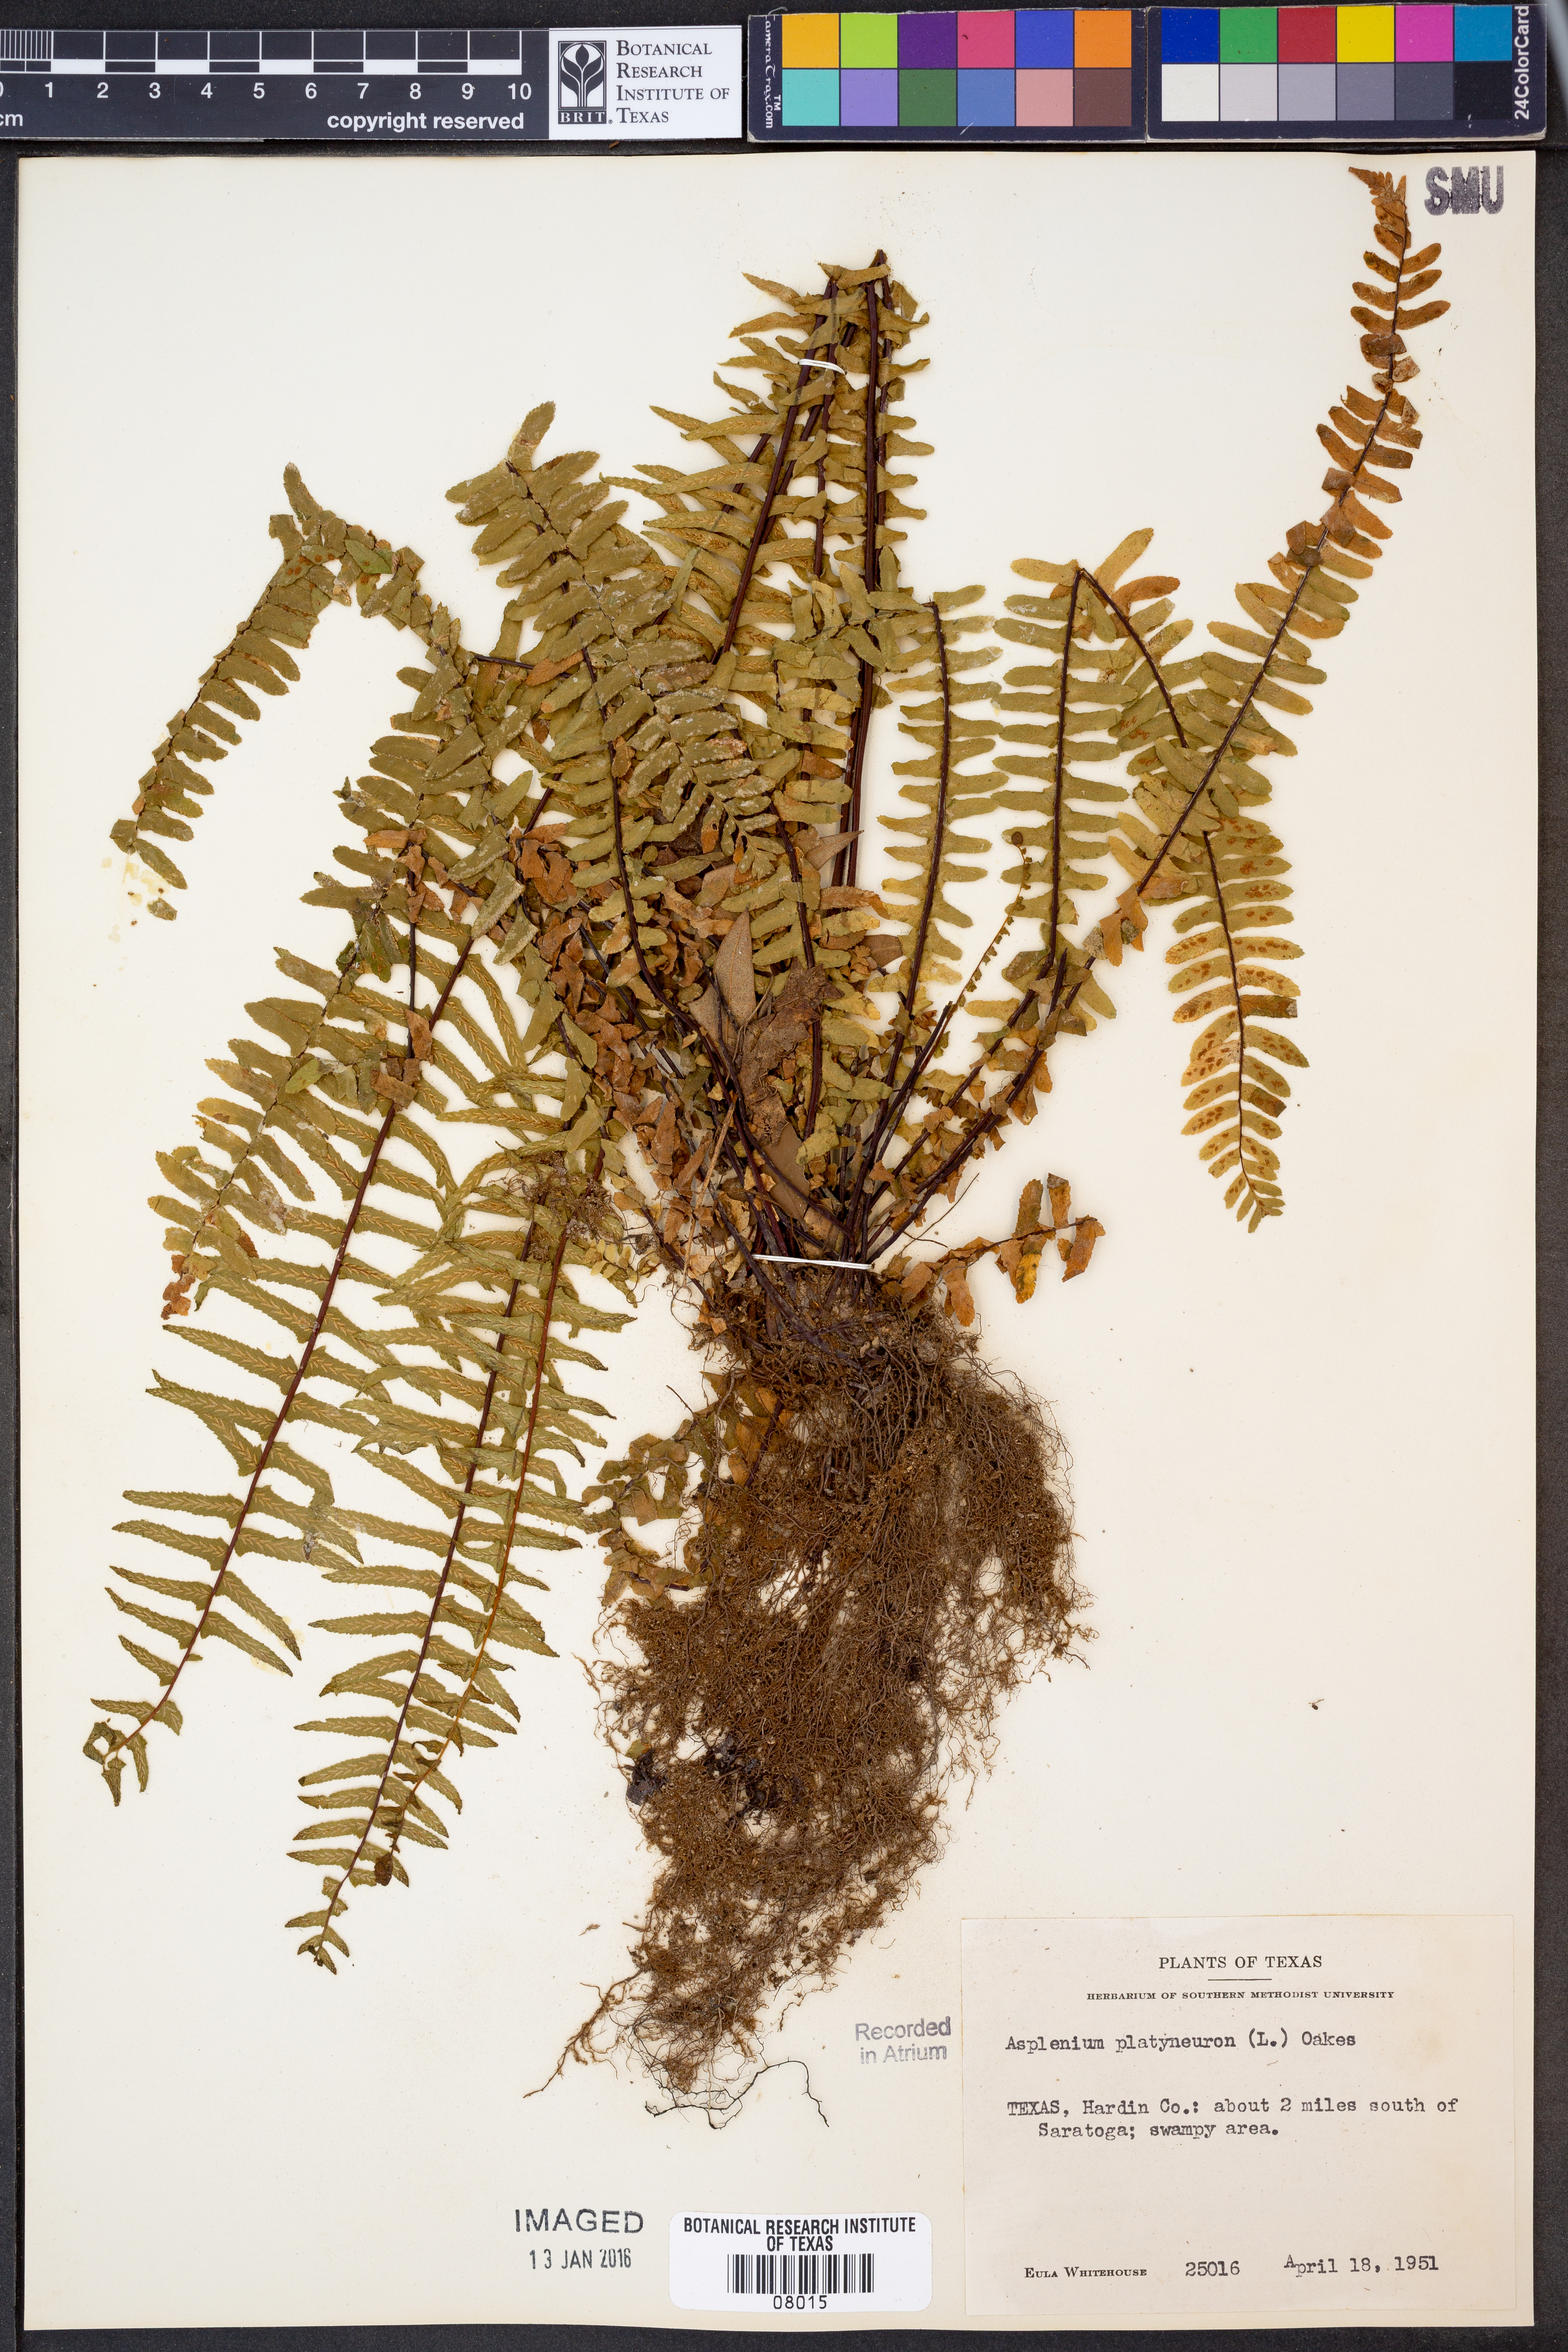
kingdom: Plantae
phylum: Tracheophyta
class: Polypodiopsida
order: Polypodiales
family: Aspleniaceae
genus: Asplenium
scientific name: Asplenium platyneuron
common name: Ebony spleenwort
